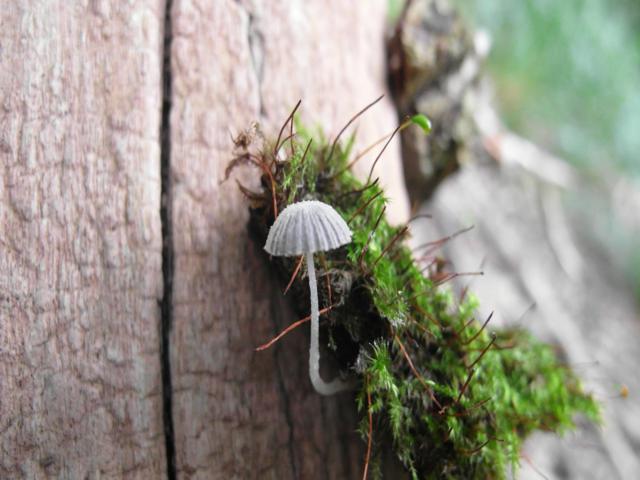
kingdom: Fungi
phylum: Basidiomycota
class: Agaricomycetes
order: Agaricales
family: Psathyrellaceae
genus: Coprinopsis
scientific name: Coprinopsis cortinata
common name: slør-blækhat
